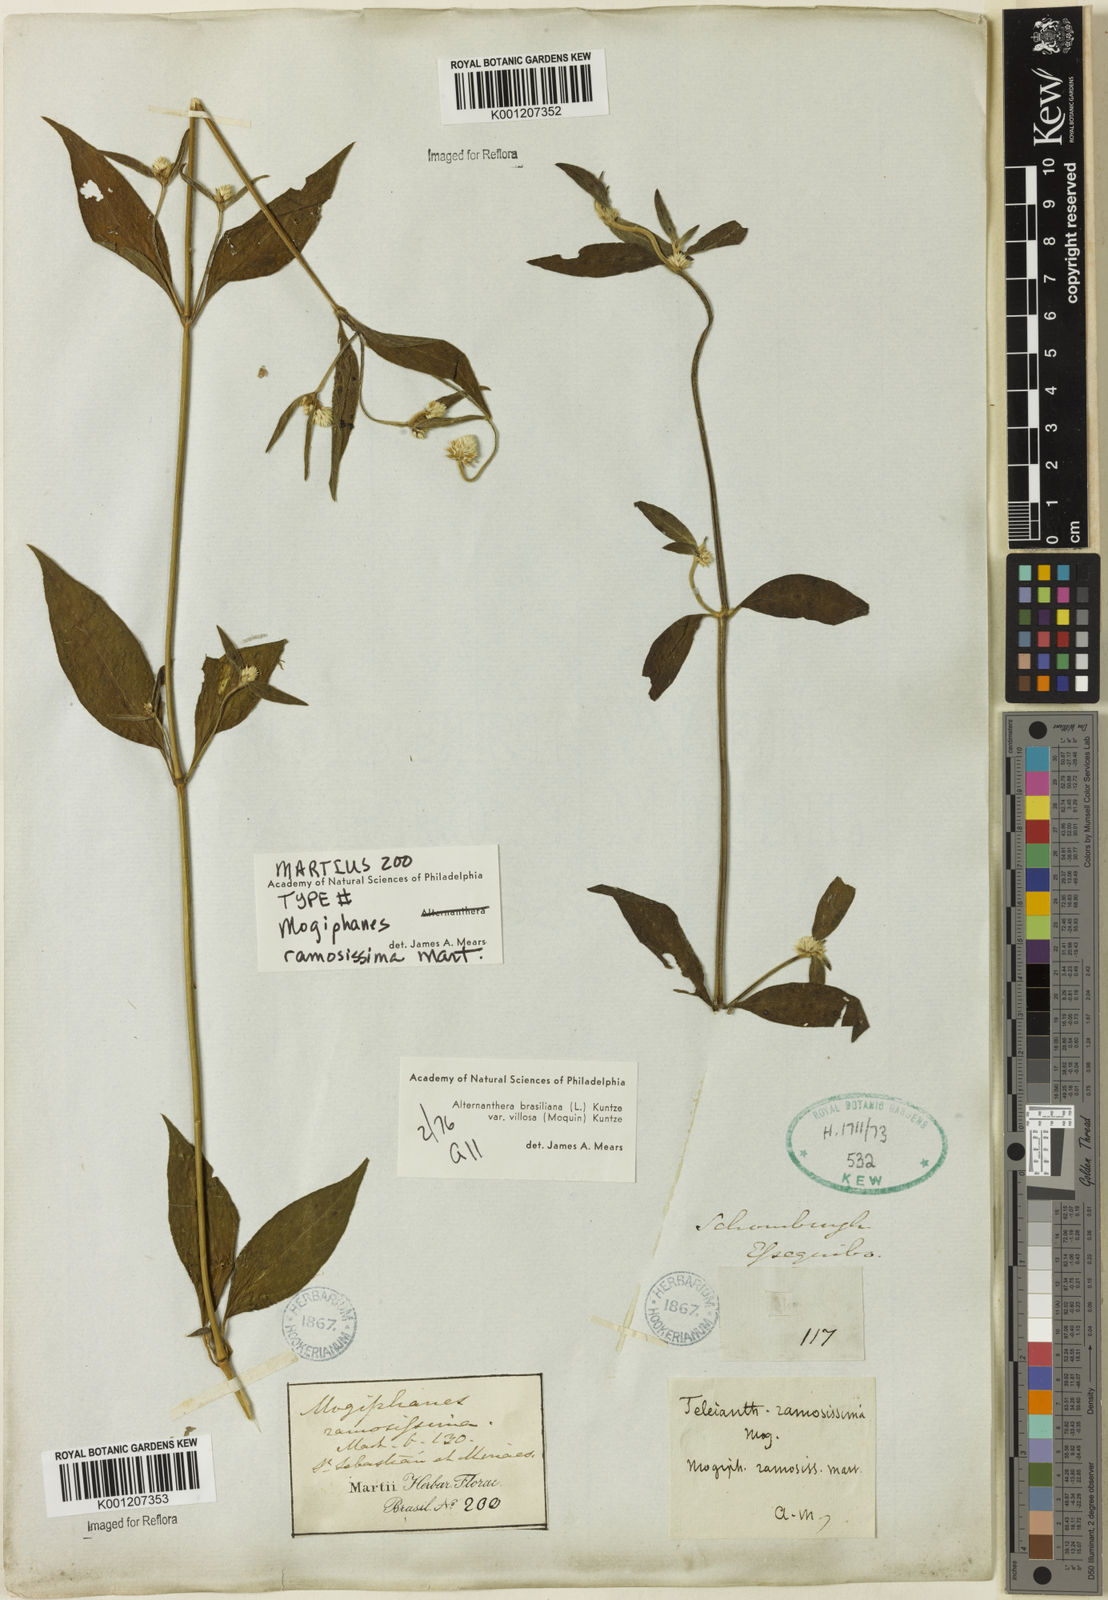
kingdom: Plantae
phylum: Tracheophyta
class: Magnoliopsida
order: Caryophyllales
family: Amaranthaceae
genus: Alternanthera
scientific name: Alternanthera ramosissima
